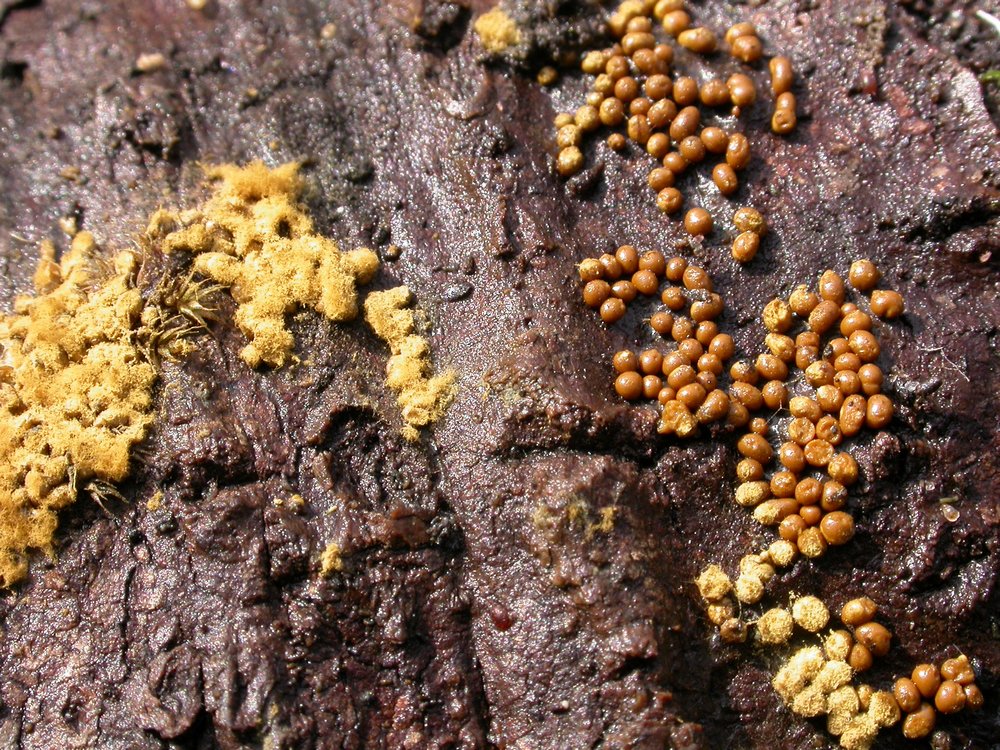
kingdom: Protozoa
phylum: Mycetozoa
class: Myxomycetes
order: Trichiales
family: Trichiaceae
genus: Trichia
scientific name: Trichia varia
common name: foranderlig hårbold
